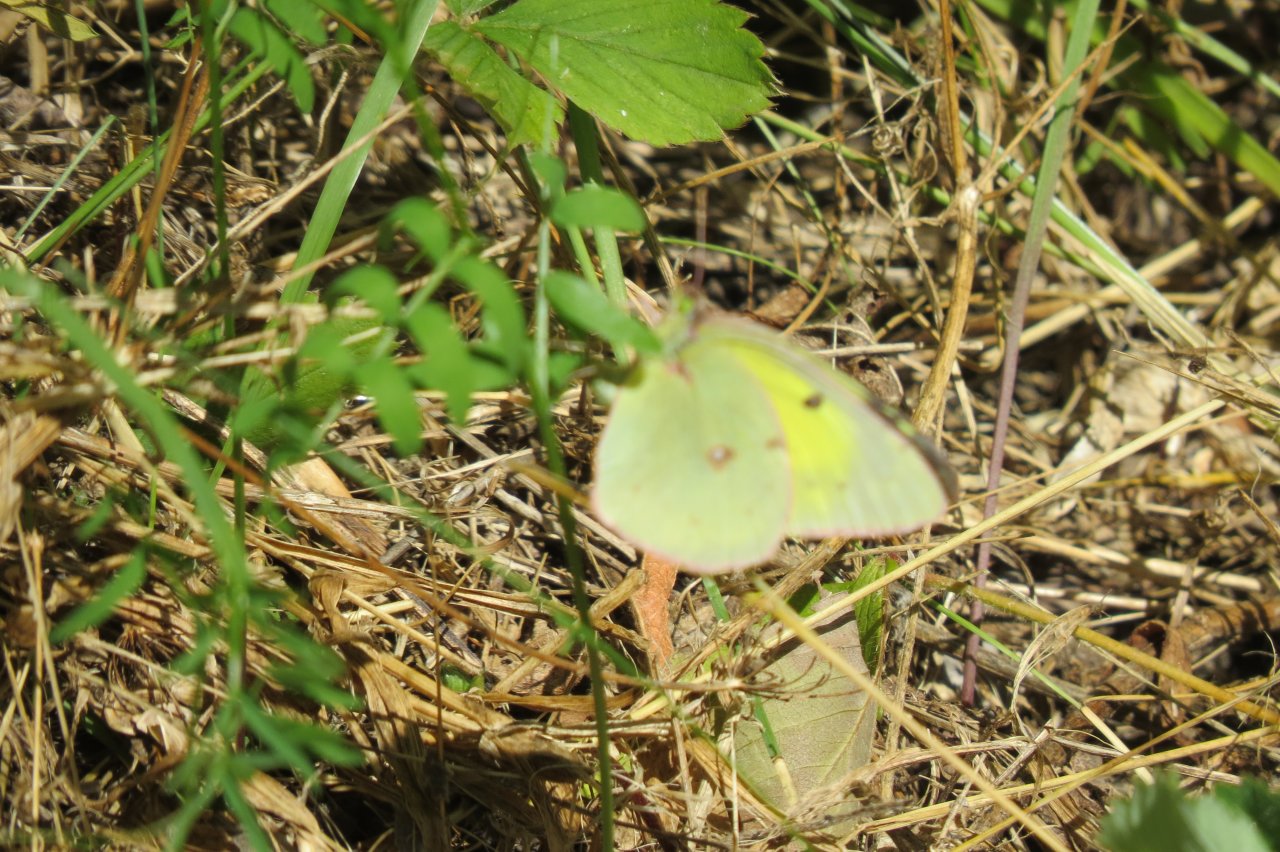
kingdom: Animalia
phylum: Arthropoda
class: Insecta
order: Lepidoptera
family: Pieridae
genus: Colias
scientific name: Colias philodice
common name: Clouded Sulphur
